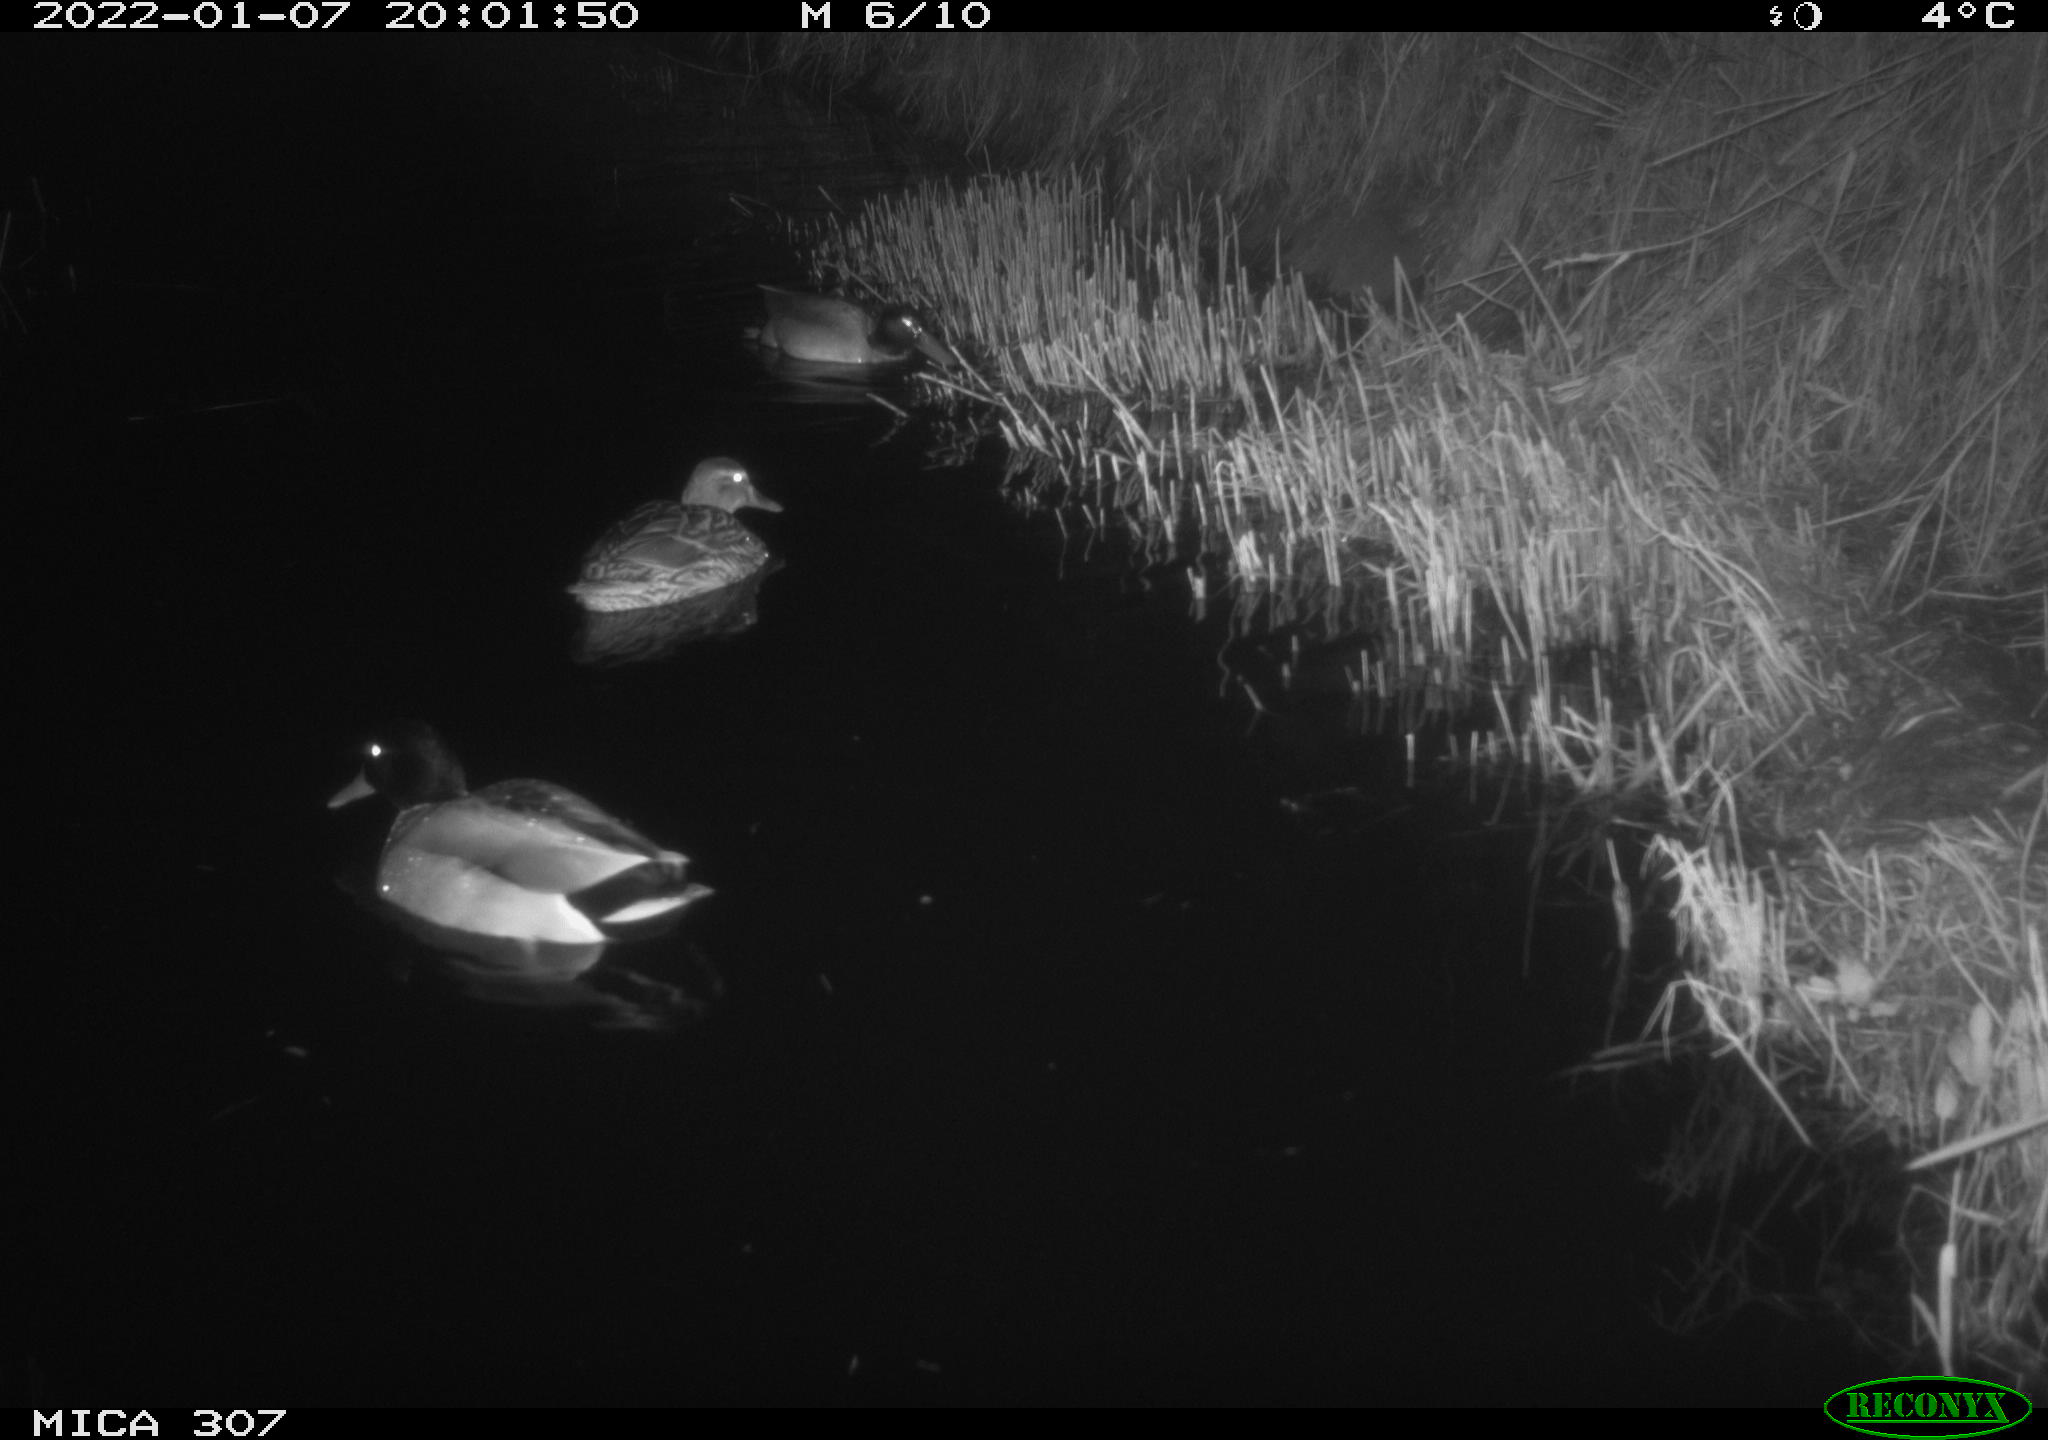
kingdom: Animalia
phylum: Chordata
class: Aves
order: Anseriformes
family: Anatidae
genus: Anas
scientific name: Anas
